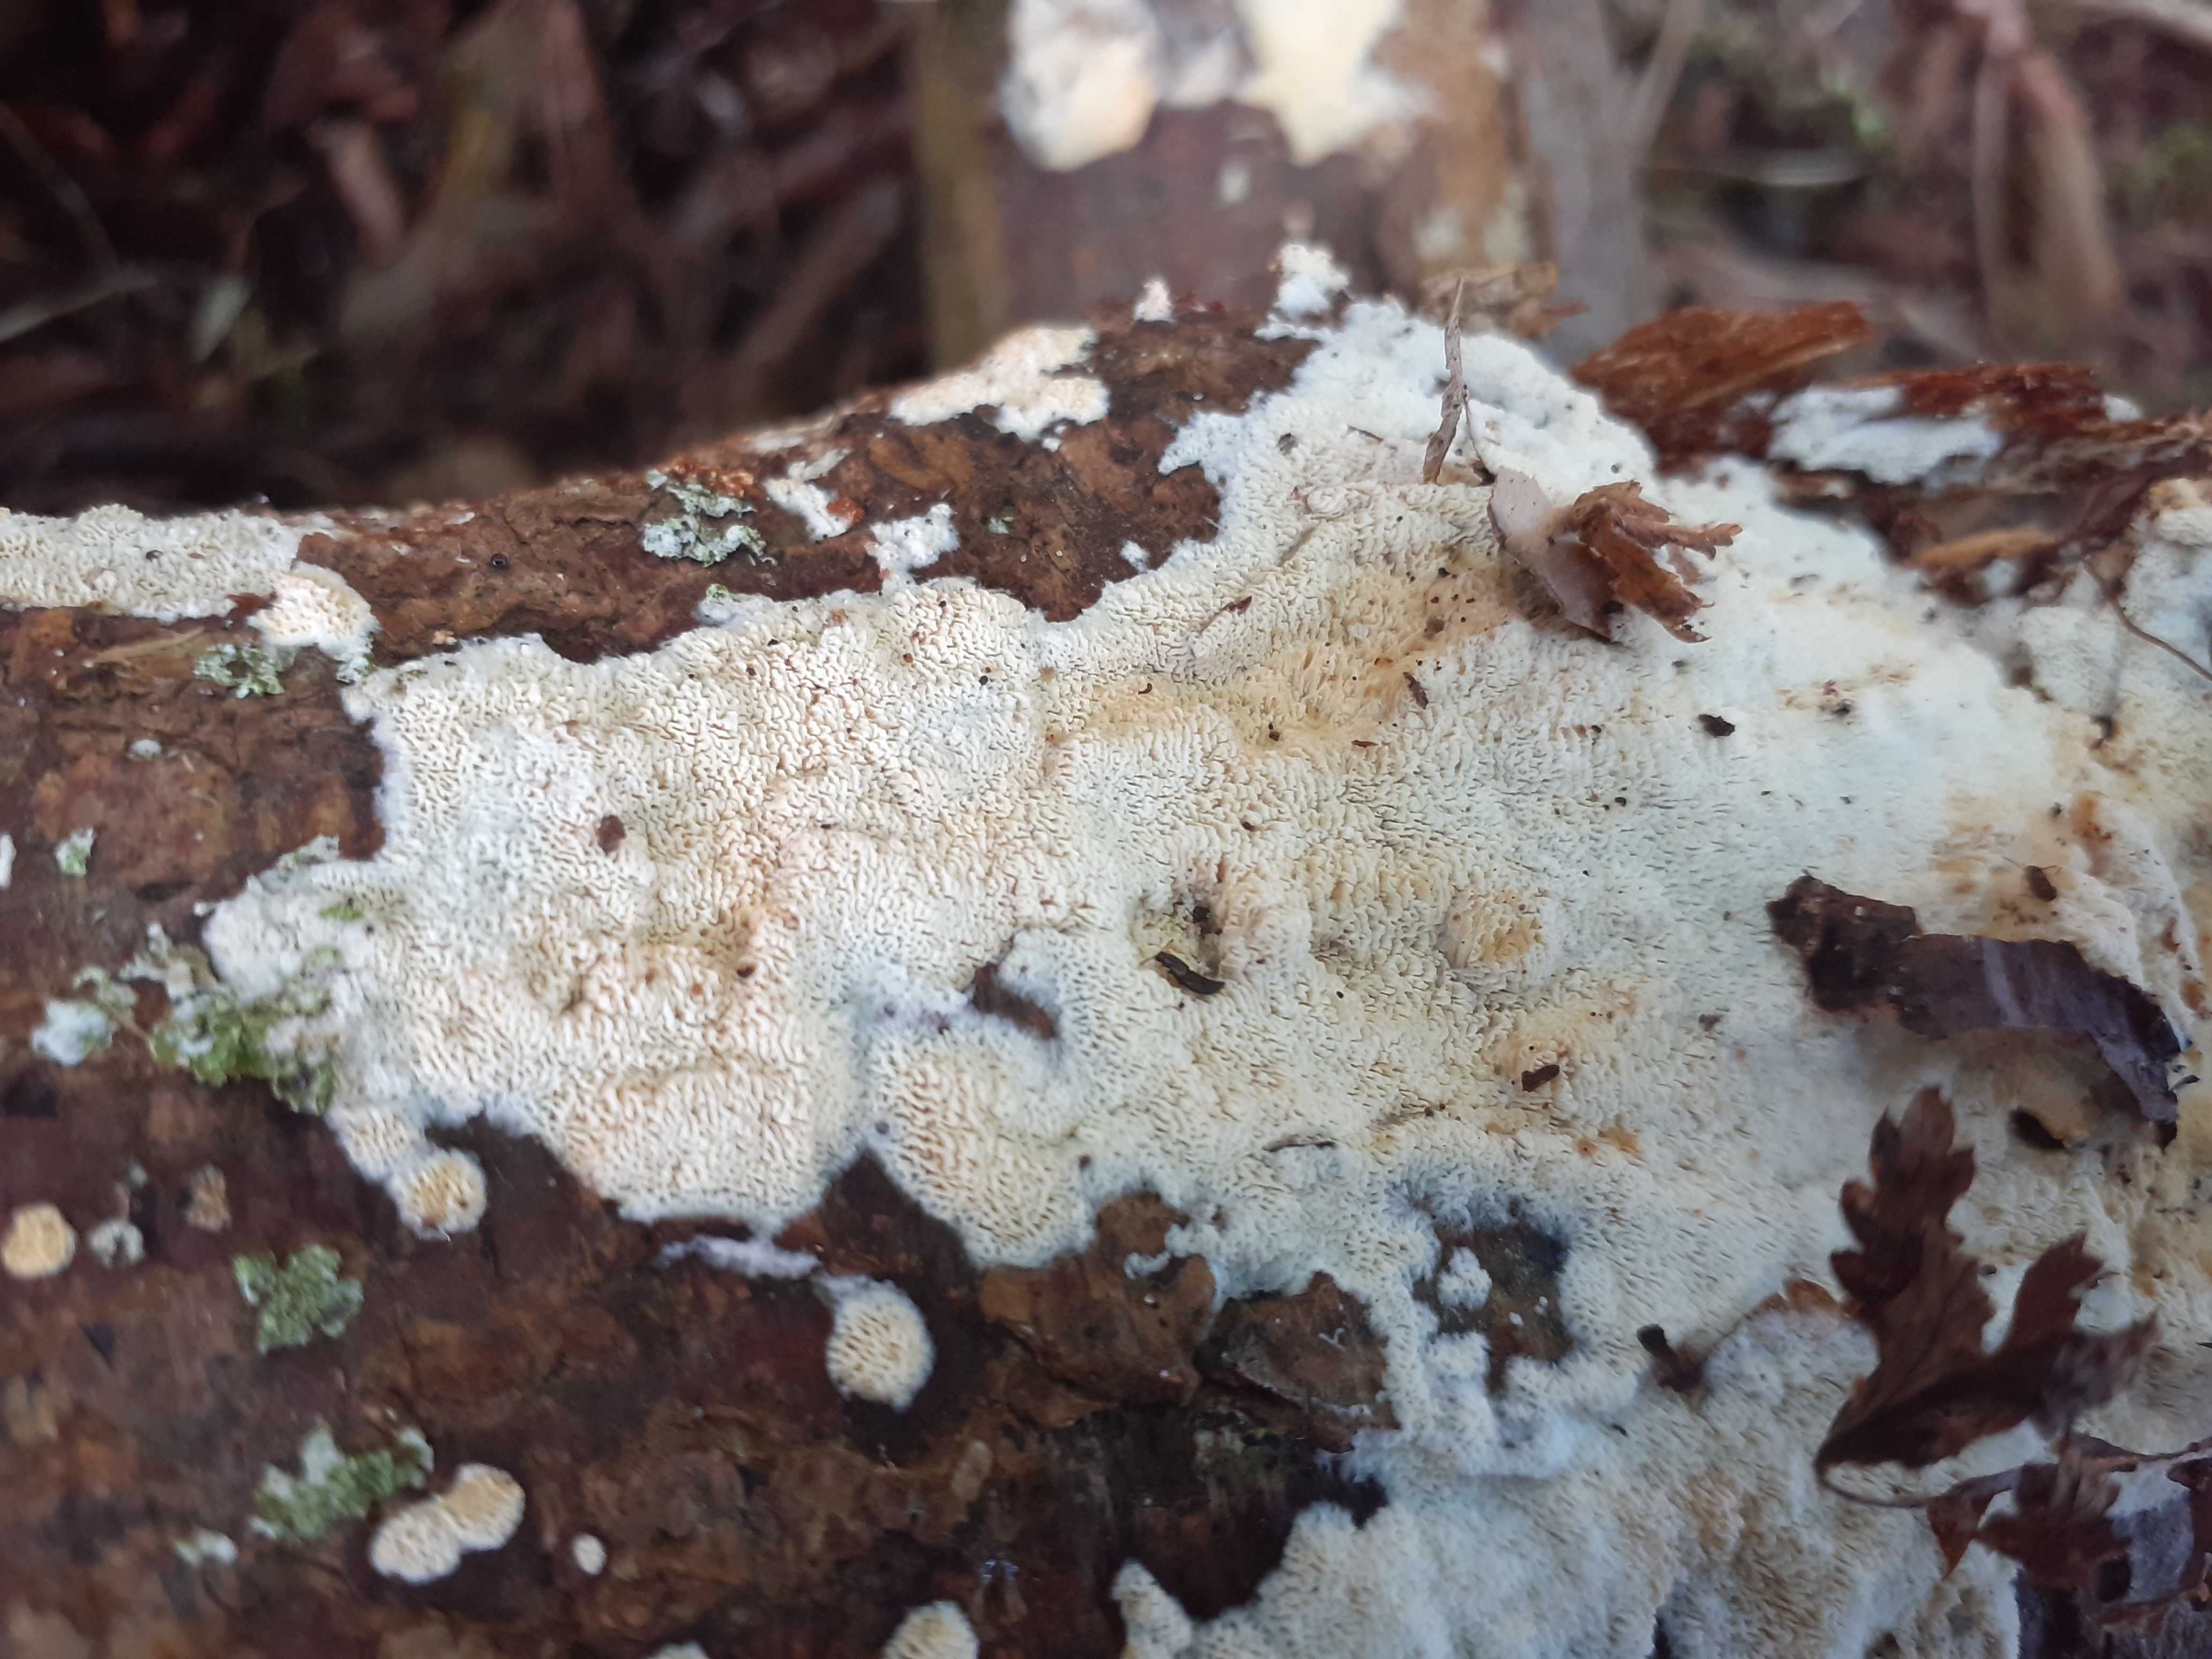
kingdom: Fungi
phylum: Basidiomycota
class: Agaricomycetes
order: Hymenochaetales
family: Schizoporaceae
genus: Xylodon
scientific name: Xylodon subtropicus
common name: labyrint-tandsvamp
